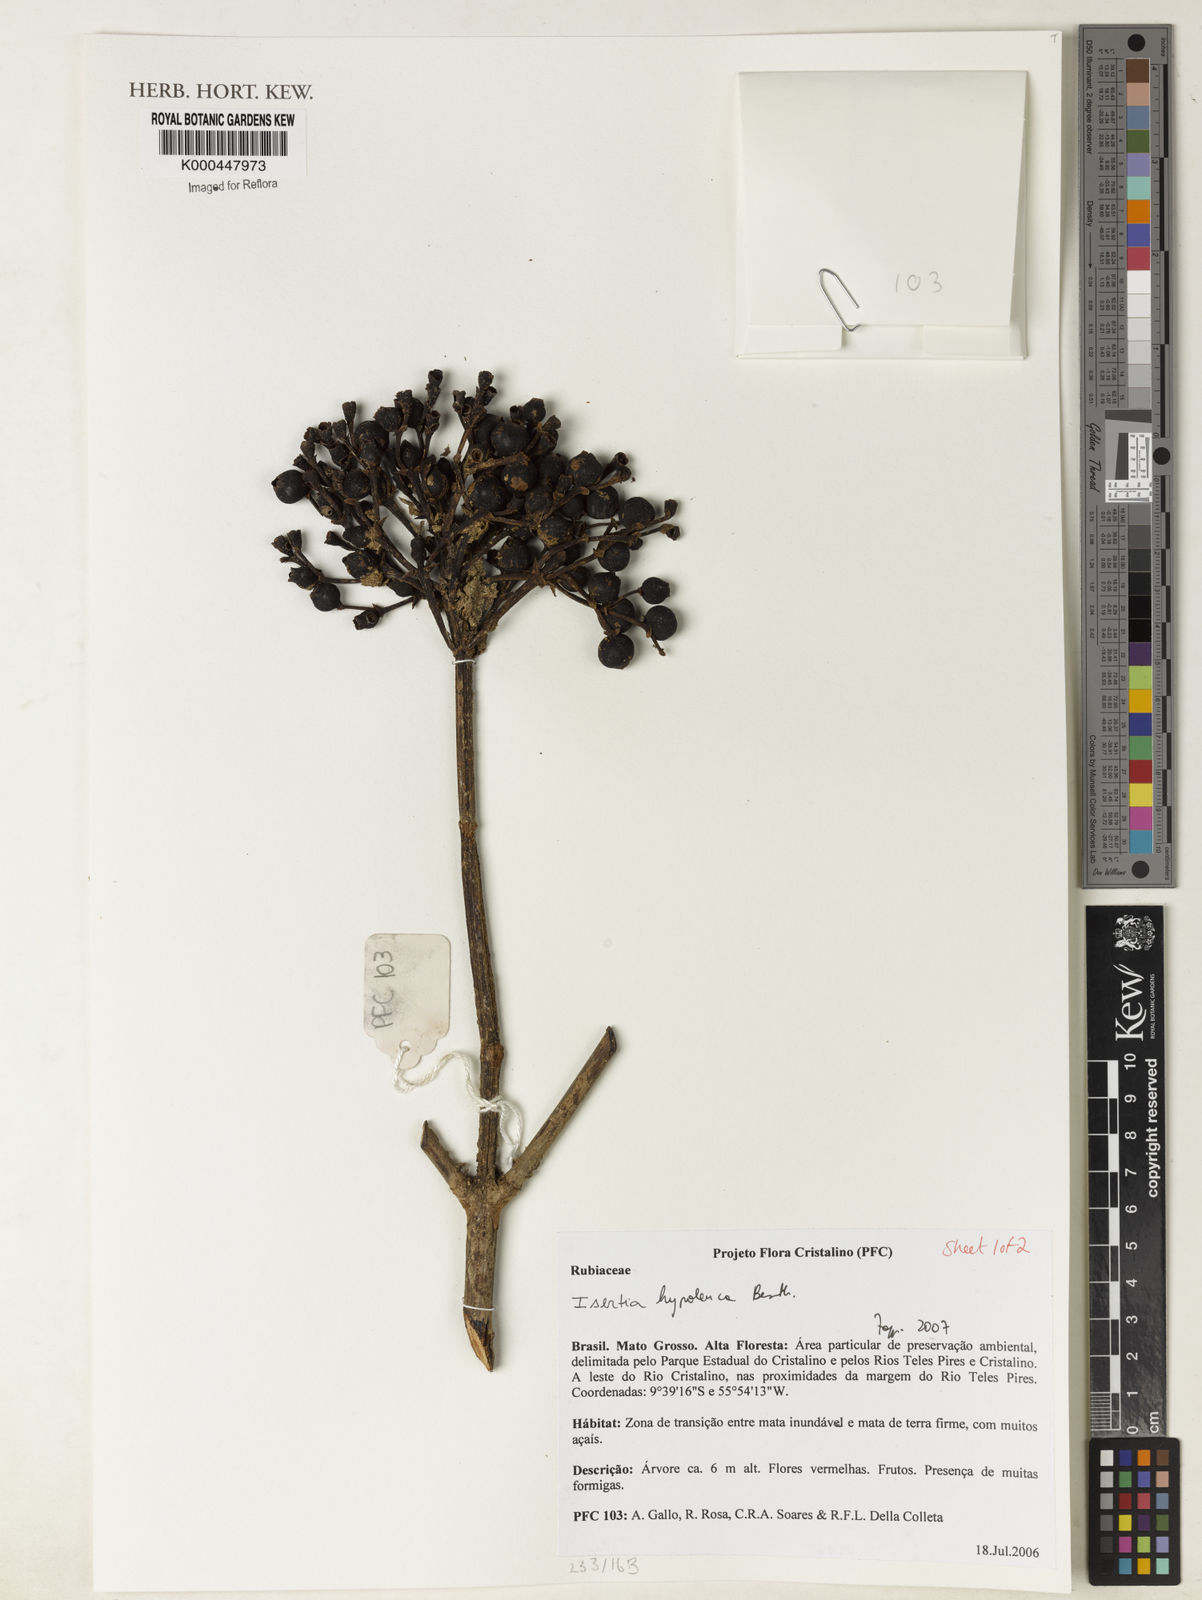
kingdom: Plantae
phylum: Tracheophyta
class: Magnoliopsida
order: Gentianales
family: Rubiaceae
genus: Isertia
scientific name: Isertia hypoleuca
